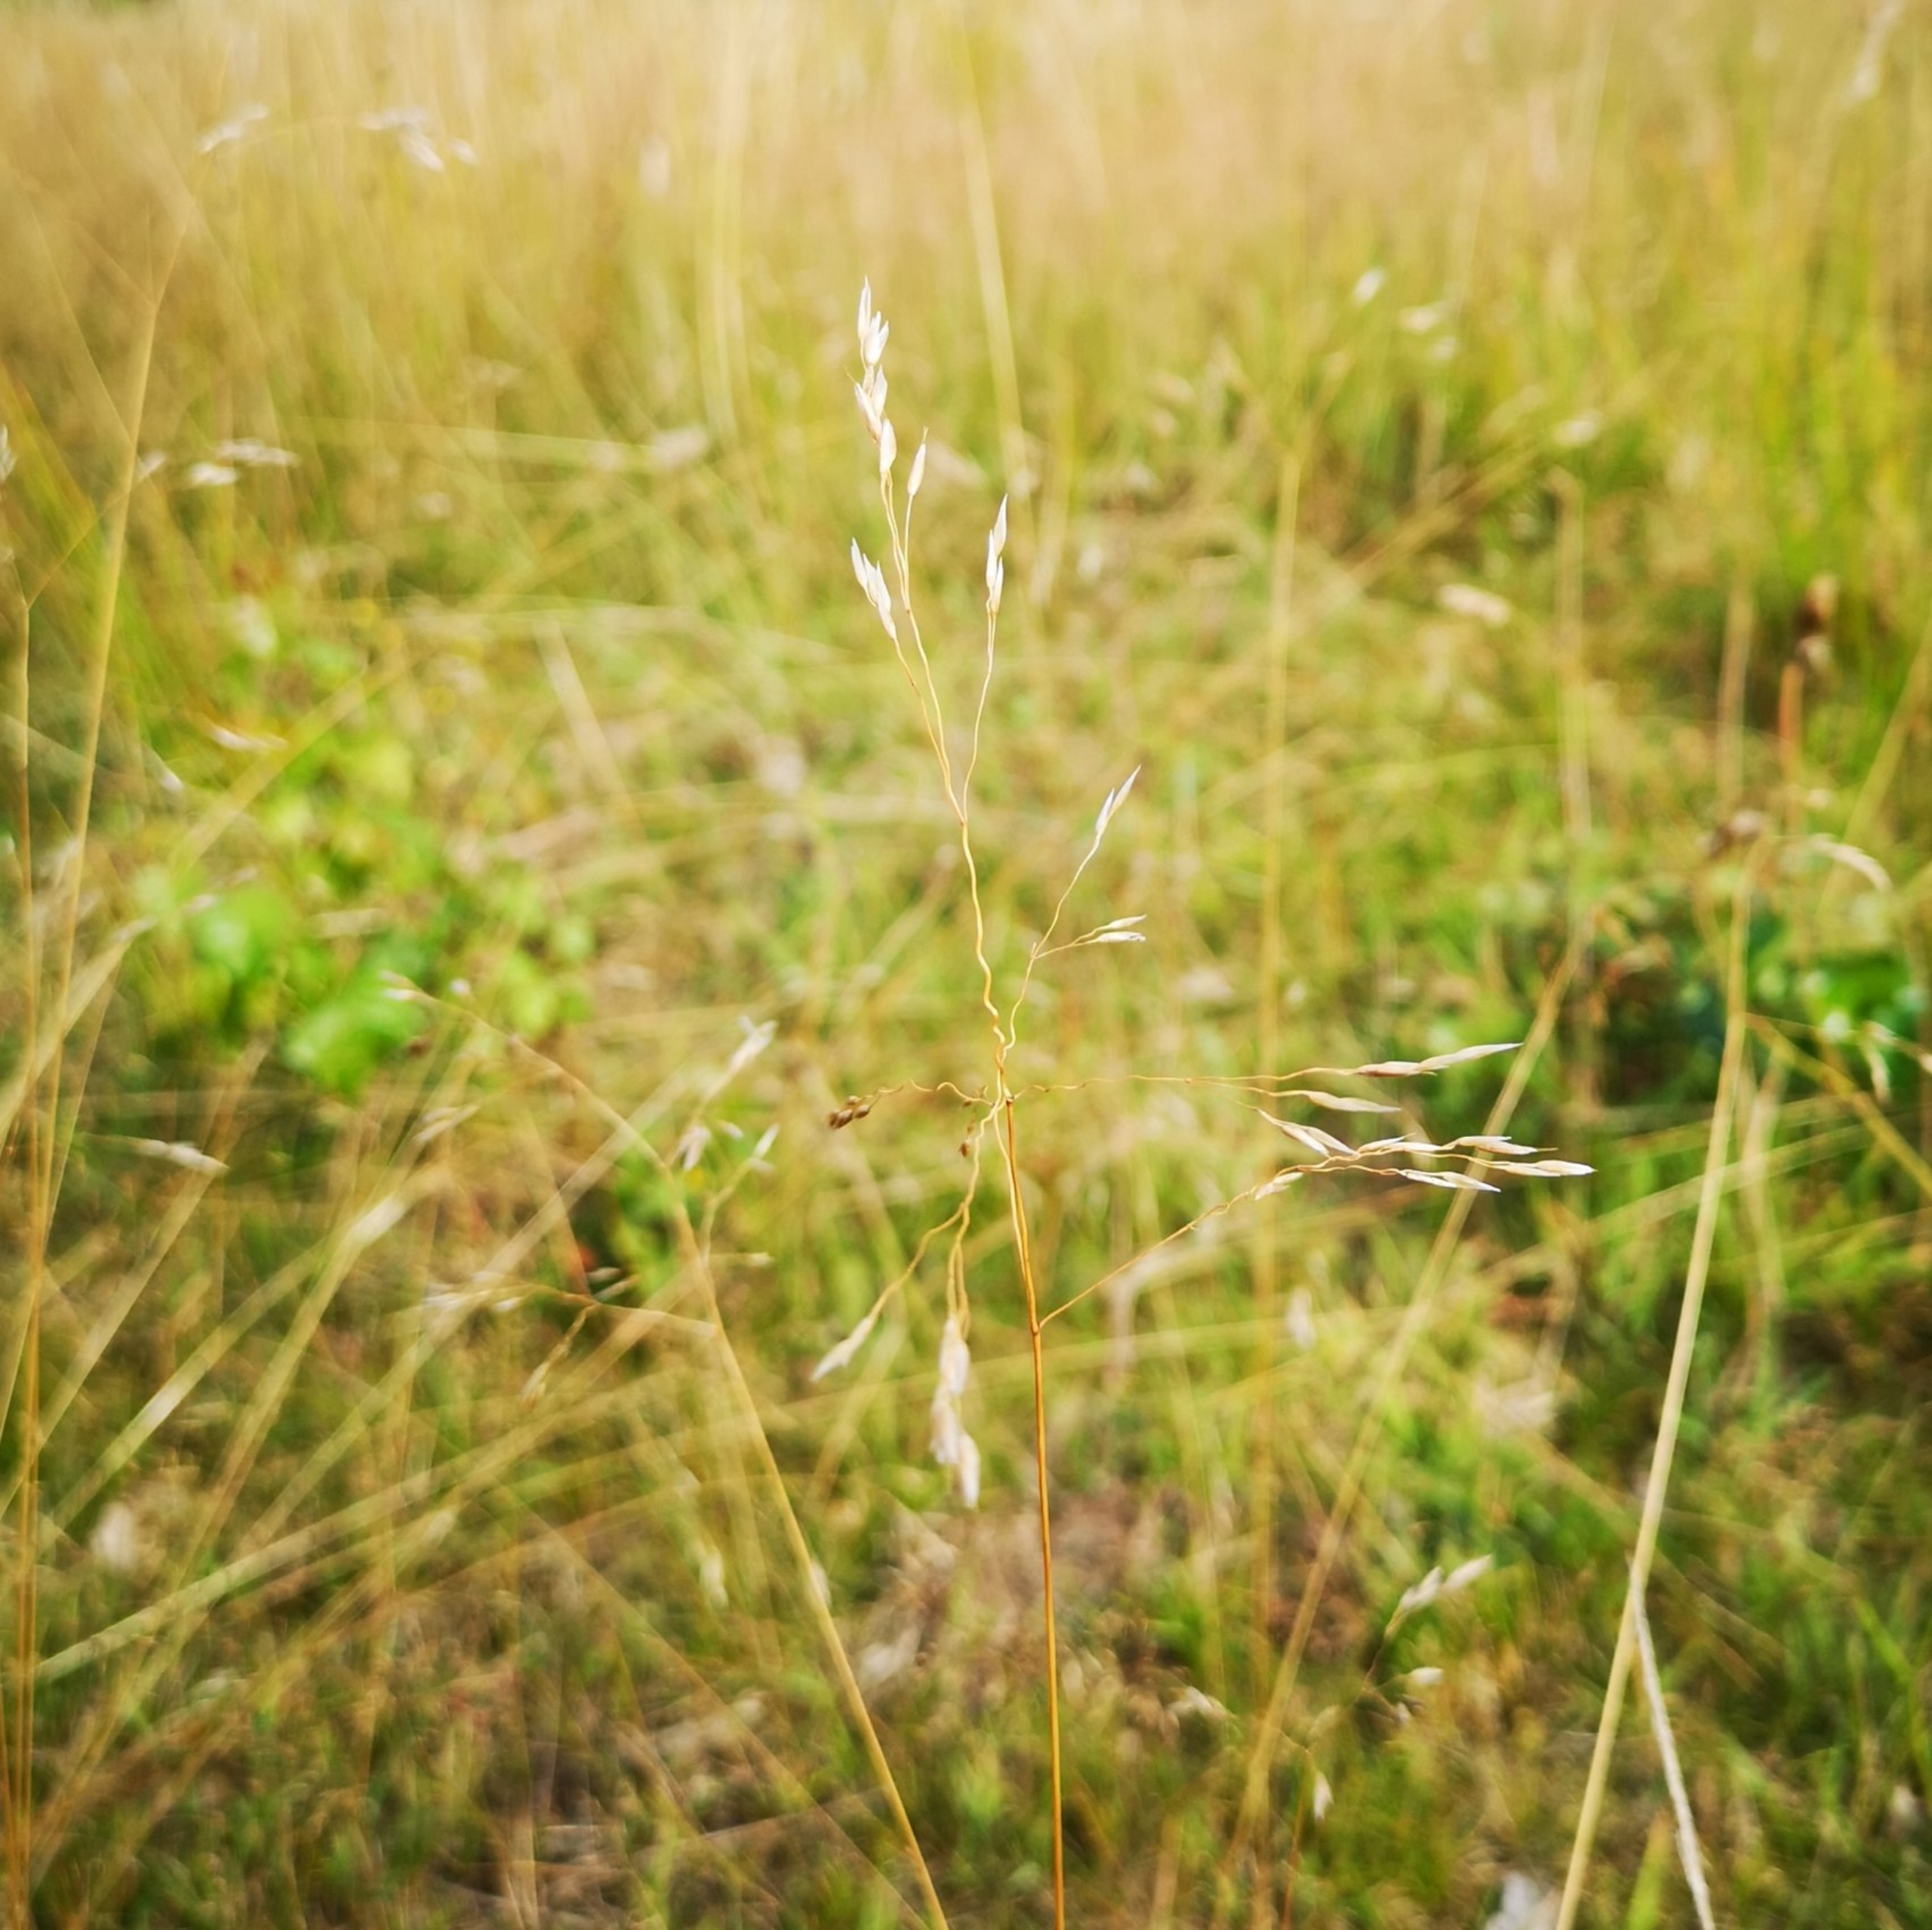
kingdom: Plantae
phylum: Tracheophyta
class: Liliopsida
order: Poales
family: Poaceae
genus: Avenella
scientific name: Avenella flexuosa
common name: Bølget bunke
